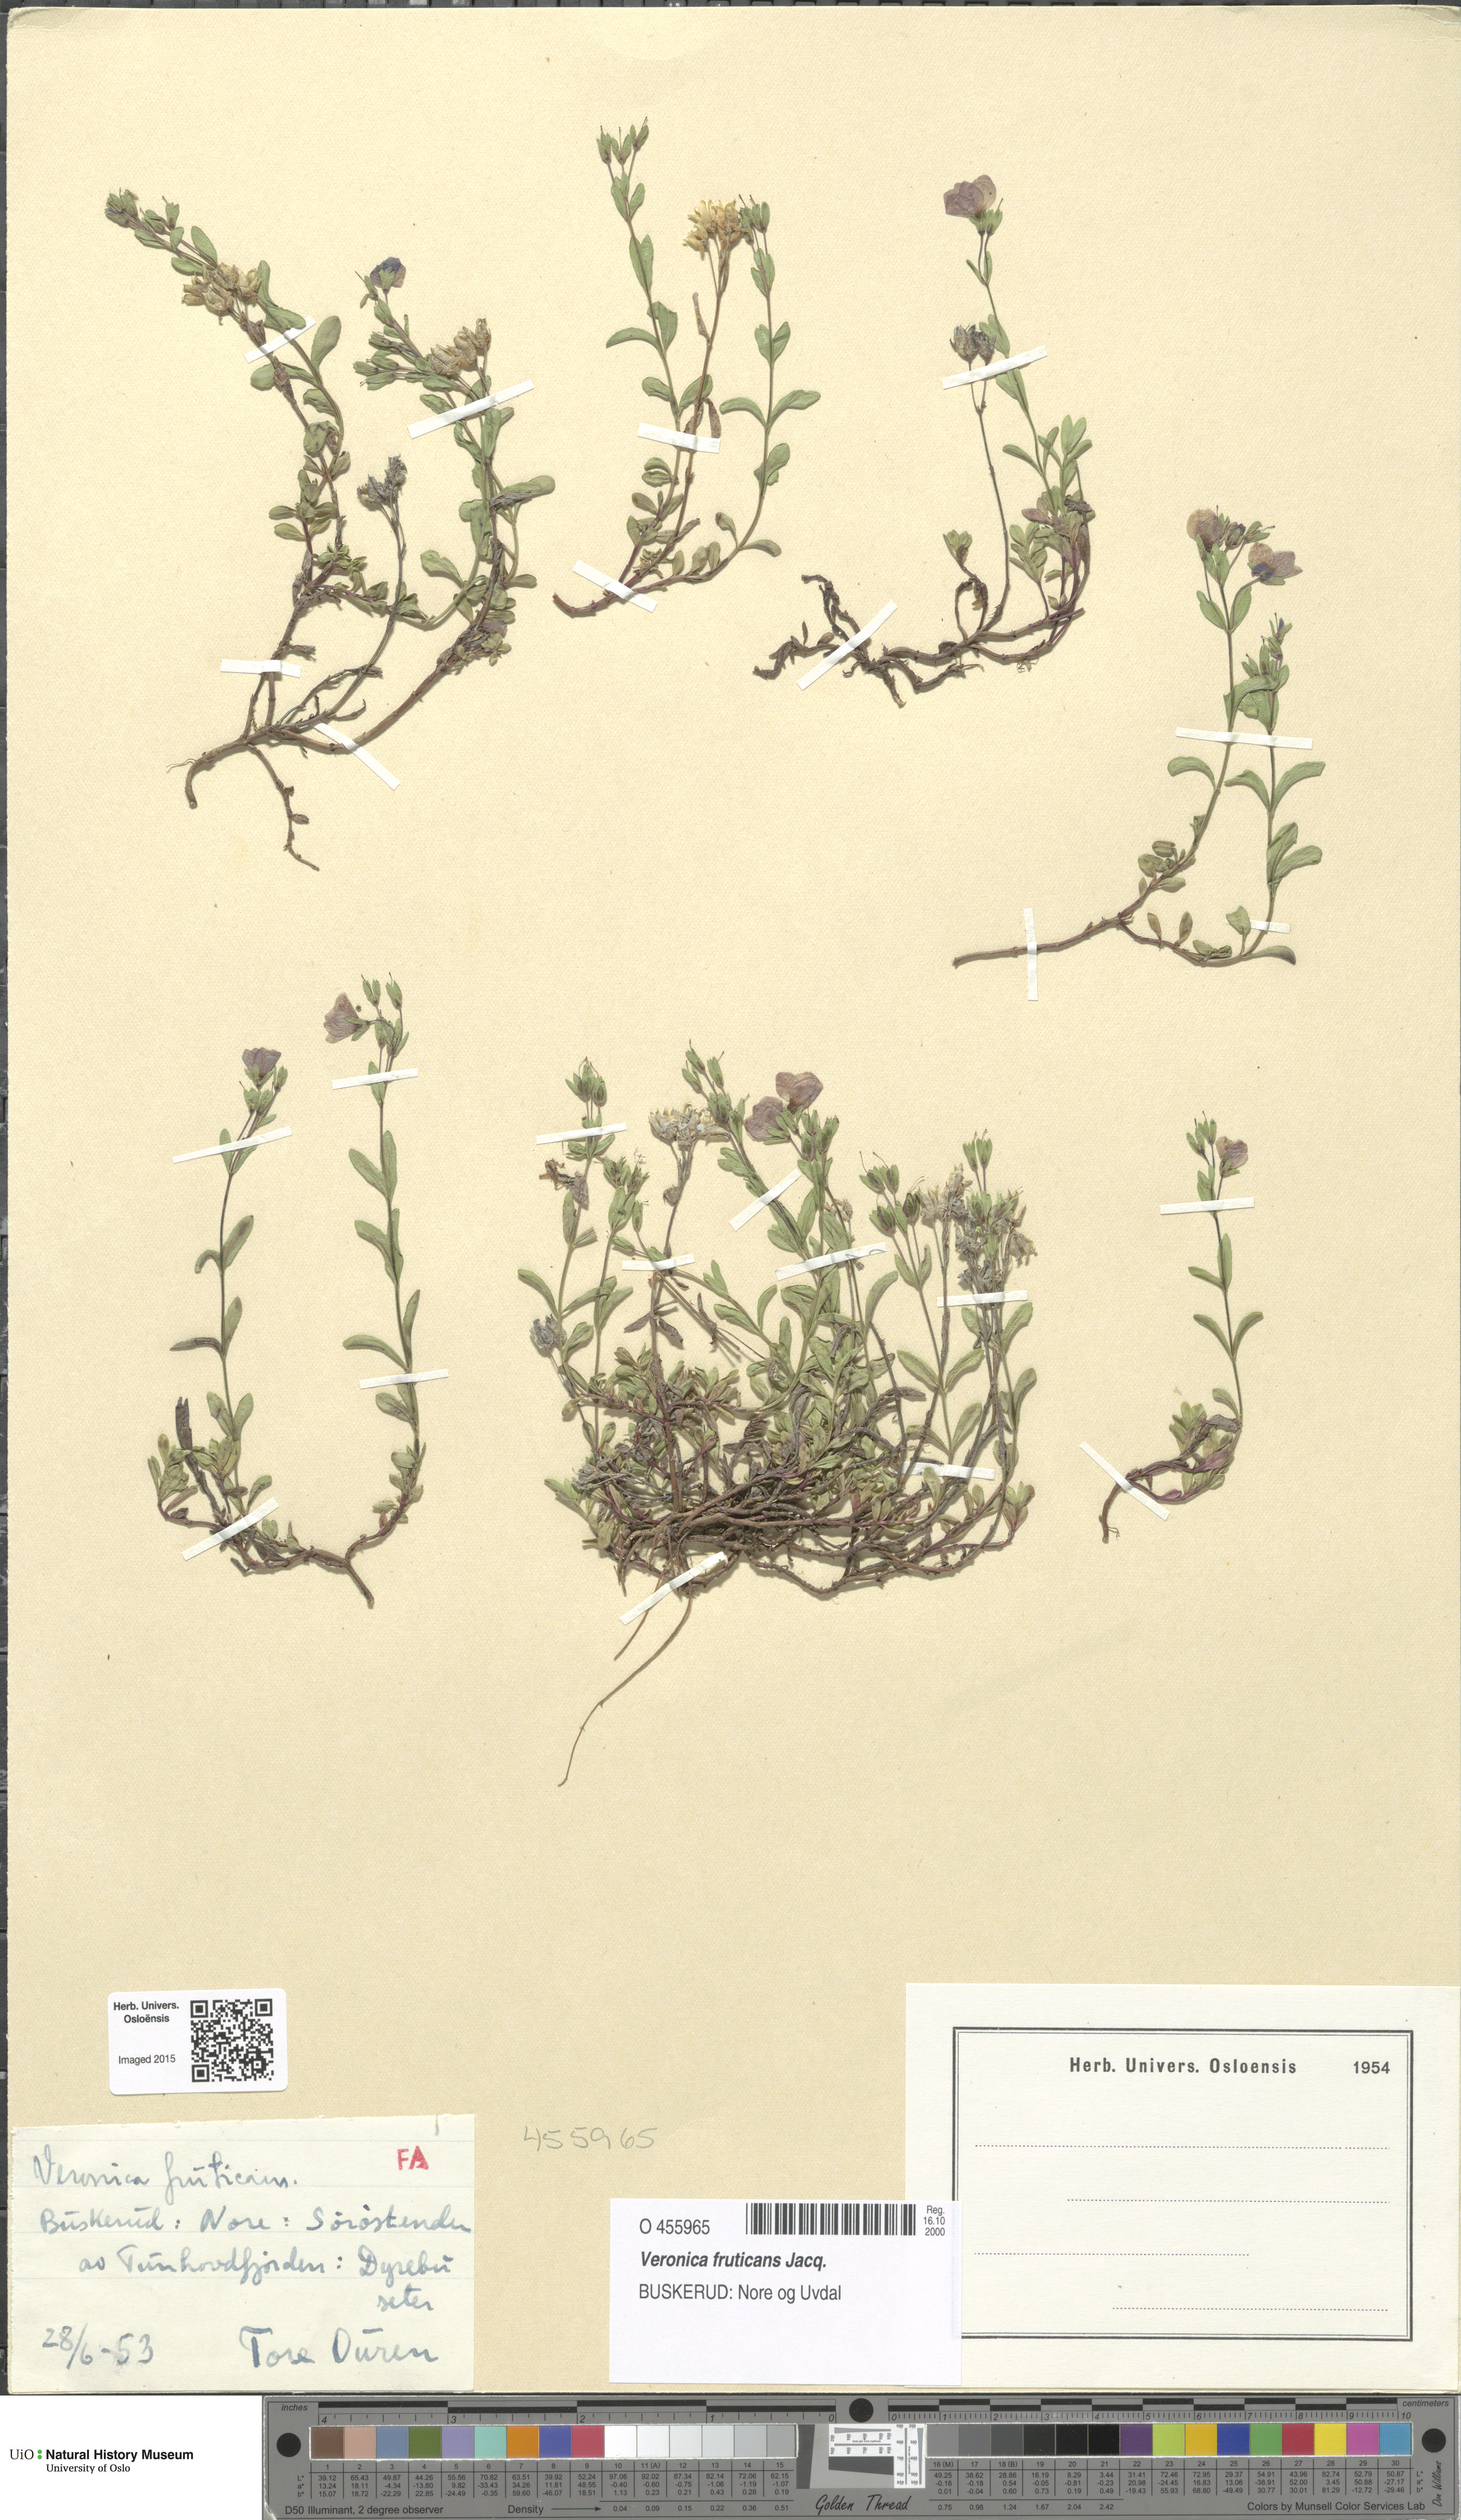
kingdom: Plantae
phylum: Tracheophyta
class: Magnoliopsida
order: Lamiales
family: Plantaginaceae
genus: Veronica
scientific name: Veronica fruticans
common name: Rock speedwell
